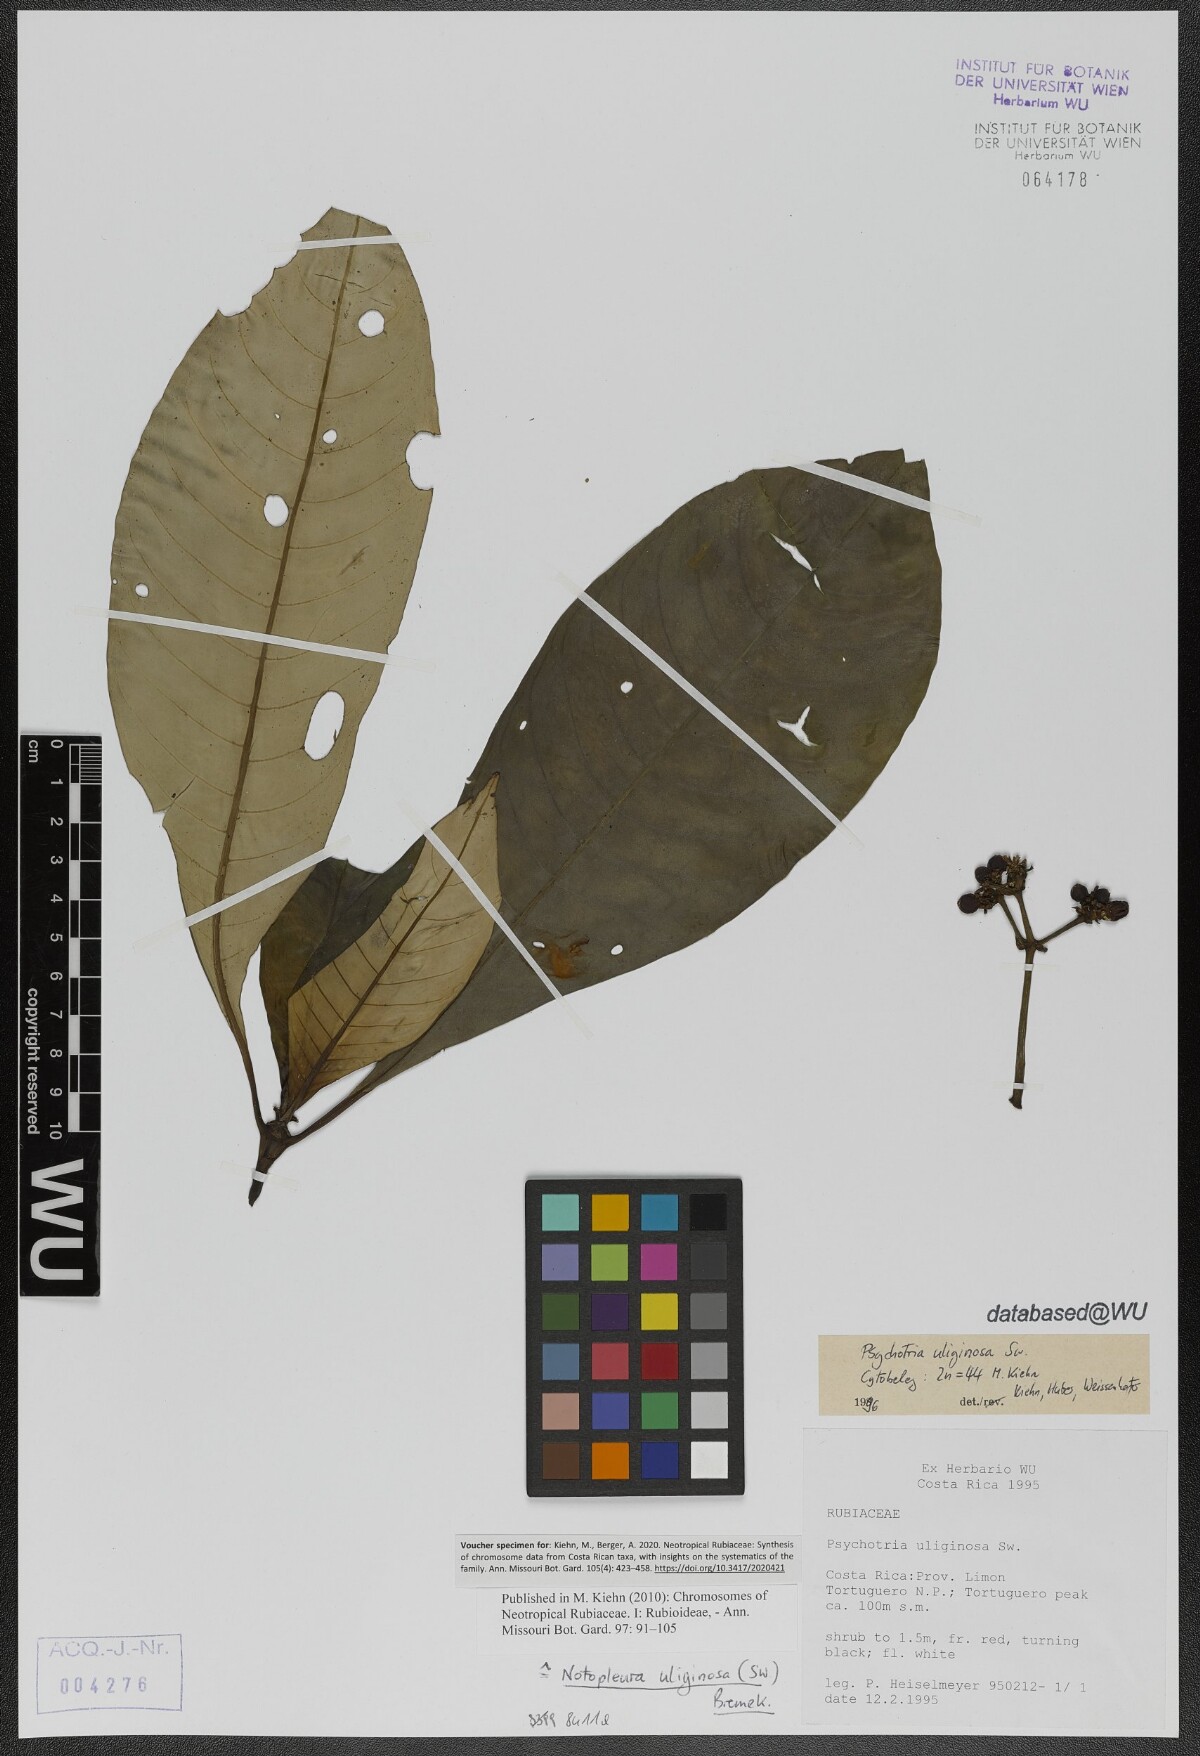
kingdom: Plantae
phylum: Tracheophyta
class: Magnoliopsida
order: Gentianales
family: Rubiaceae
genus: Notopleura
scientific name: Notopleura uliginosa
